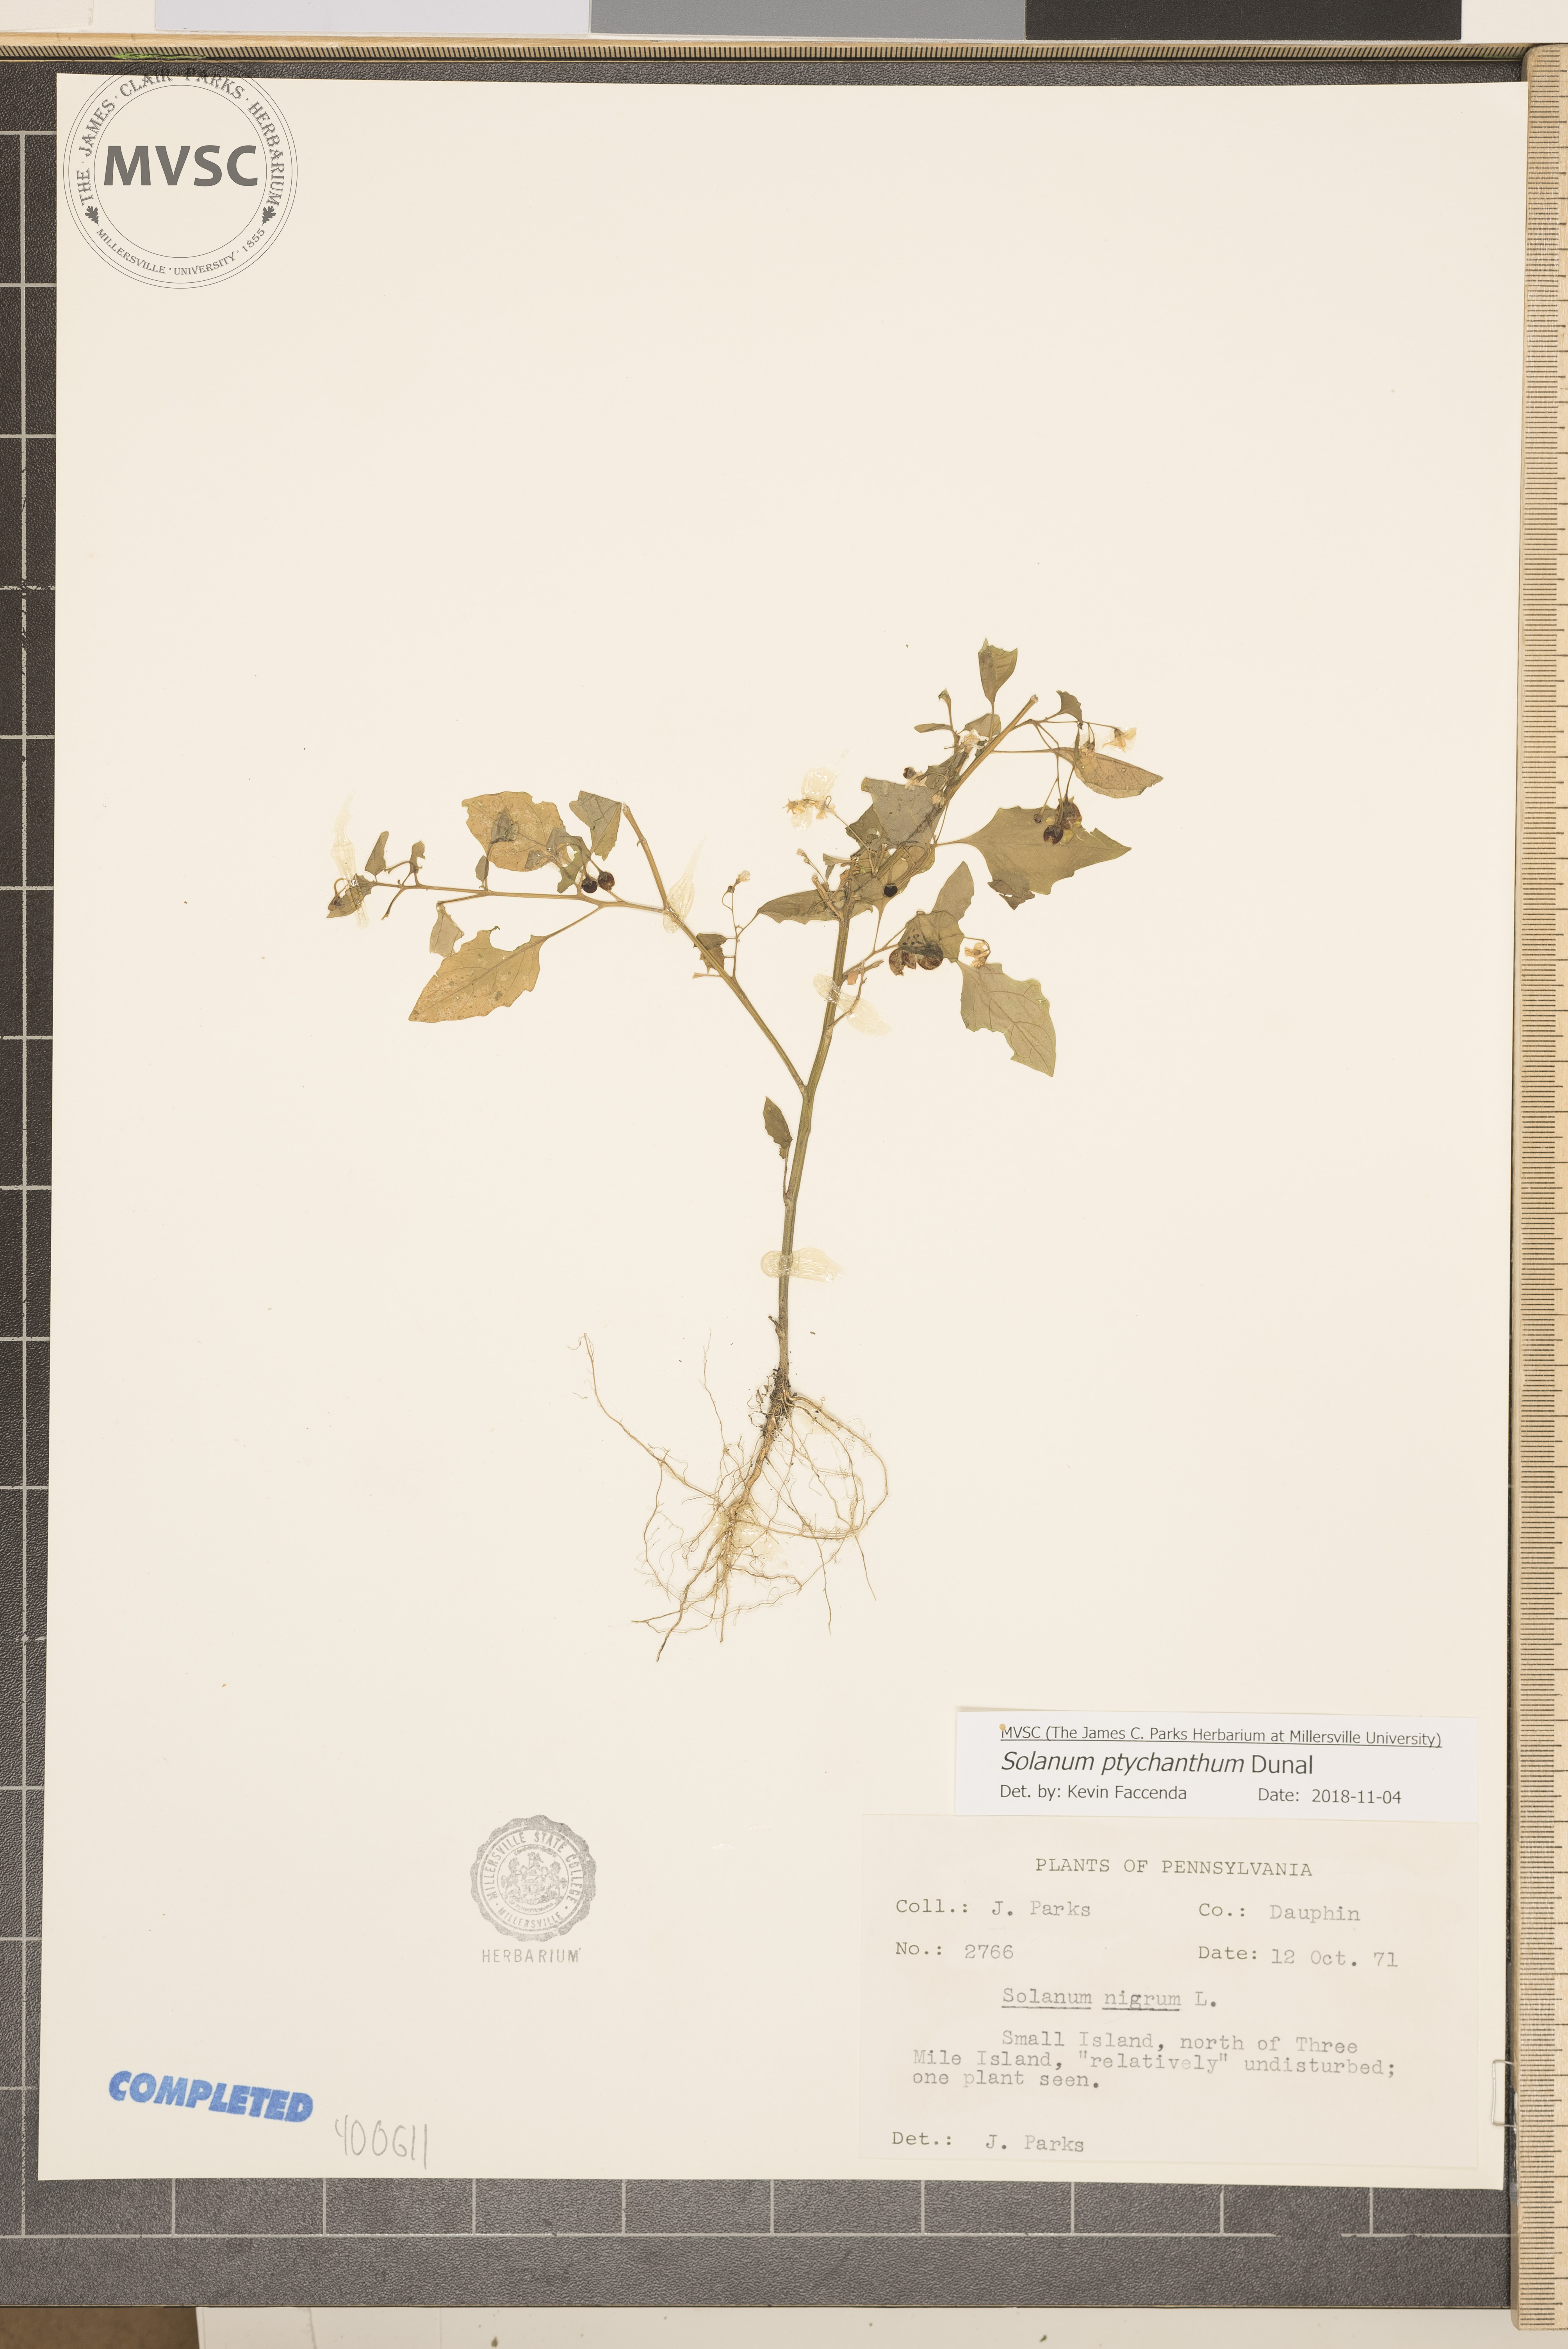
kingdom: Plantae
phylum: Tracheophyta
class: Magnoliopsida
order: Solanales
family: Solanaceae
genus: Solanum
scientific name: Solanum americanum
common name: nightshade
